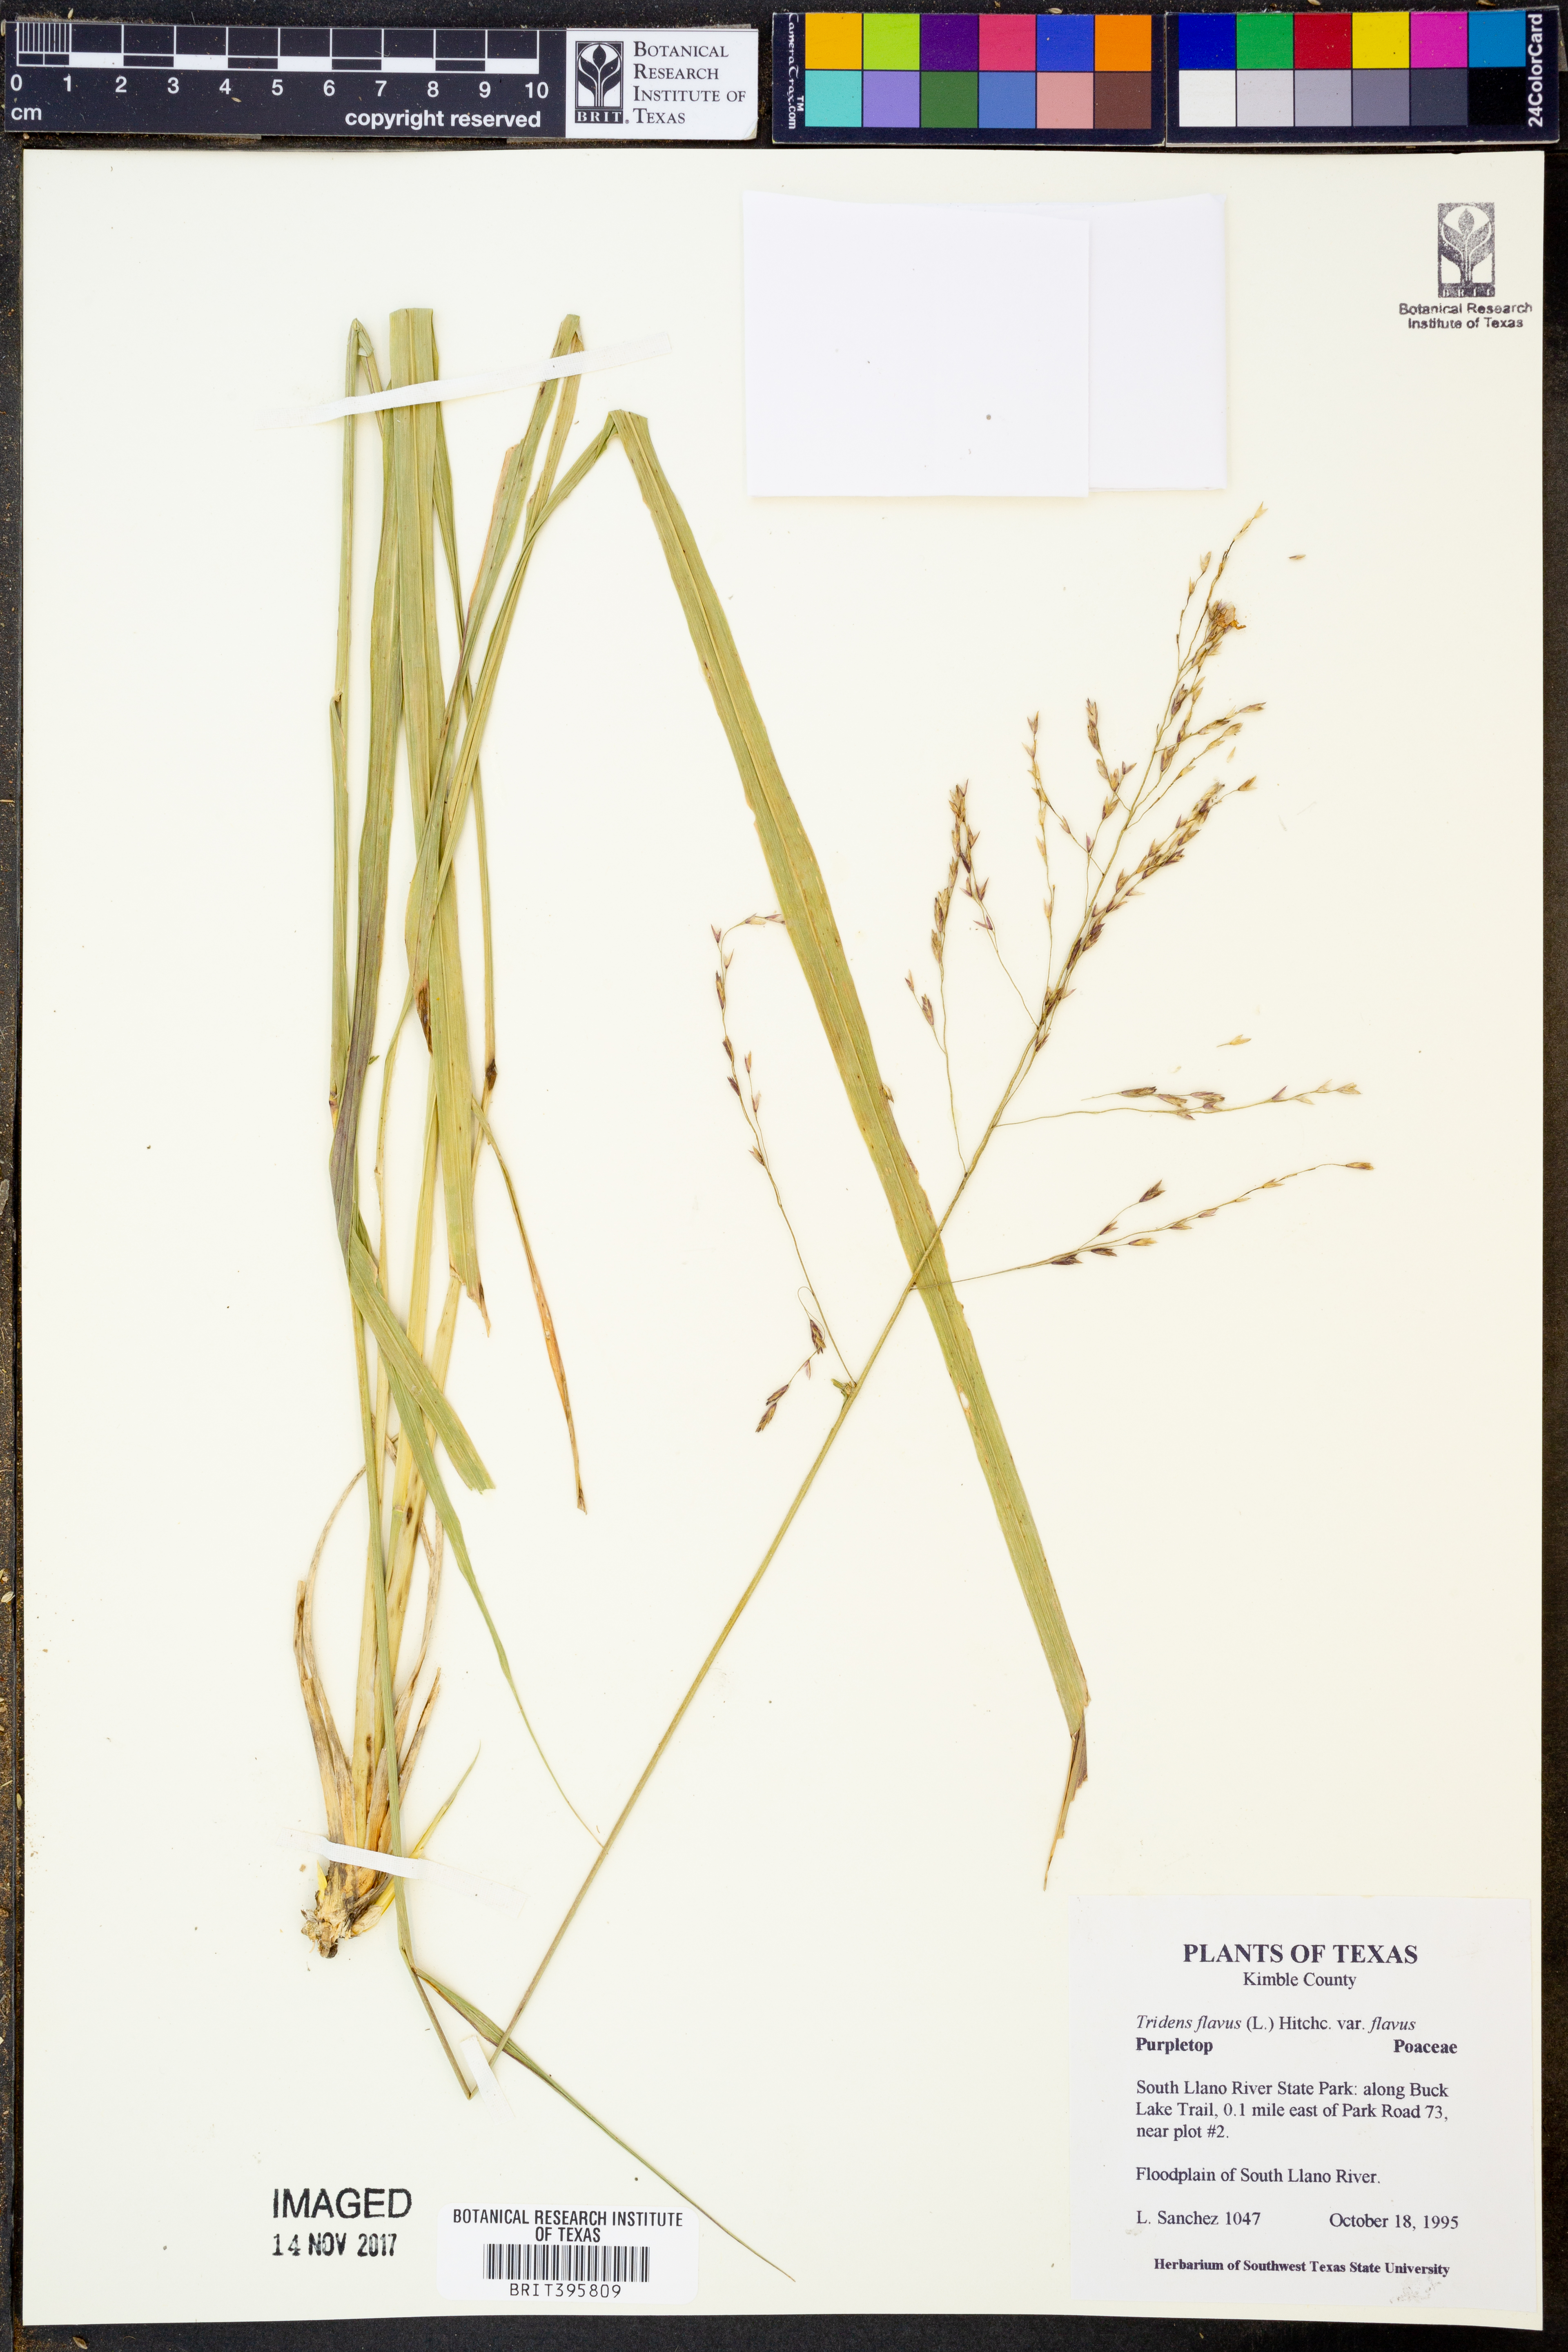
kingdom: Plantae
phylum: Tracheophyta
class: Liliopsida
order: Poales
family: Poaceae
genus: Tridens
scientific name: Tridens flavus
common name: Purpletop
